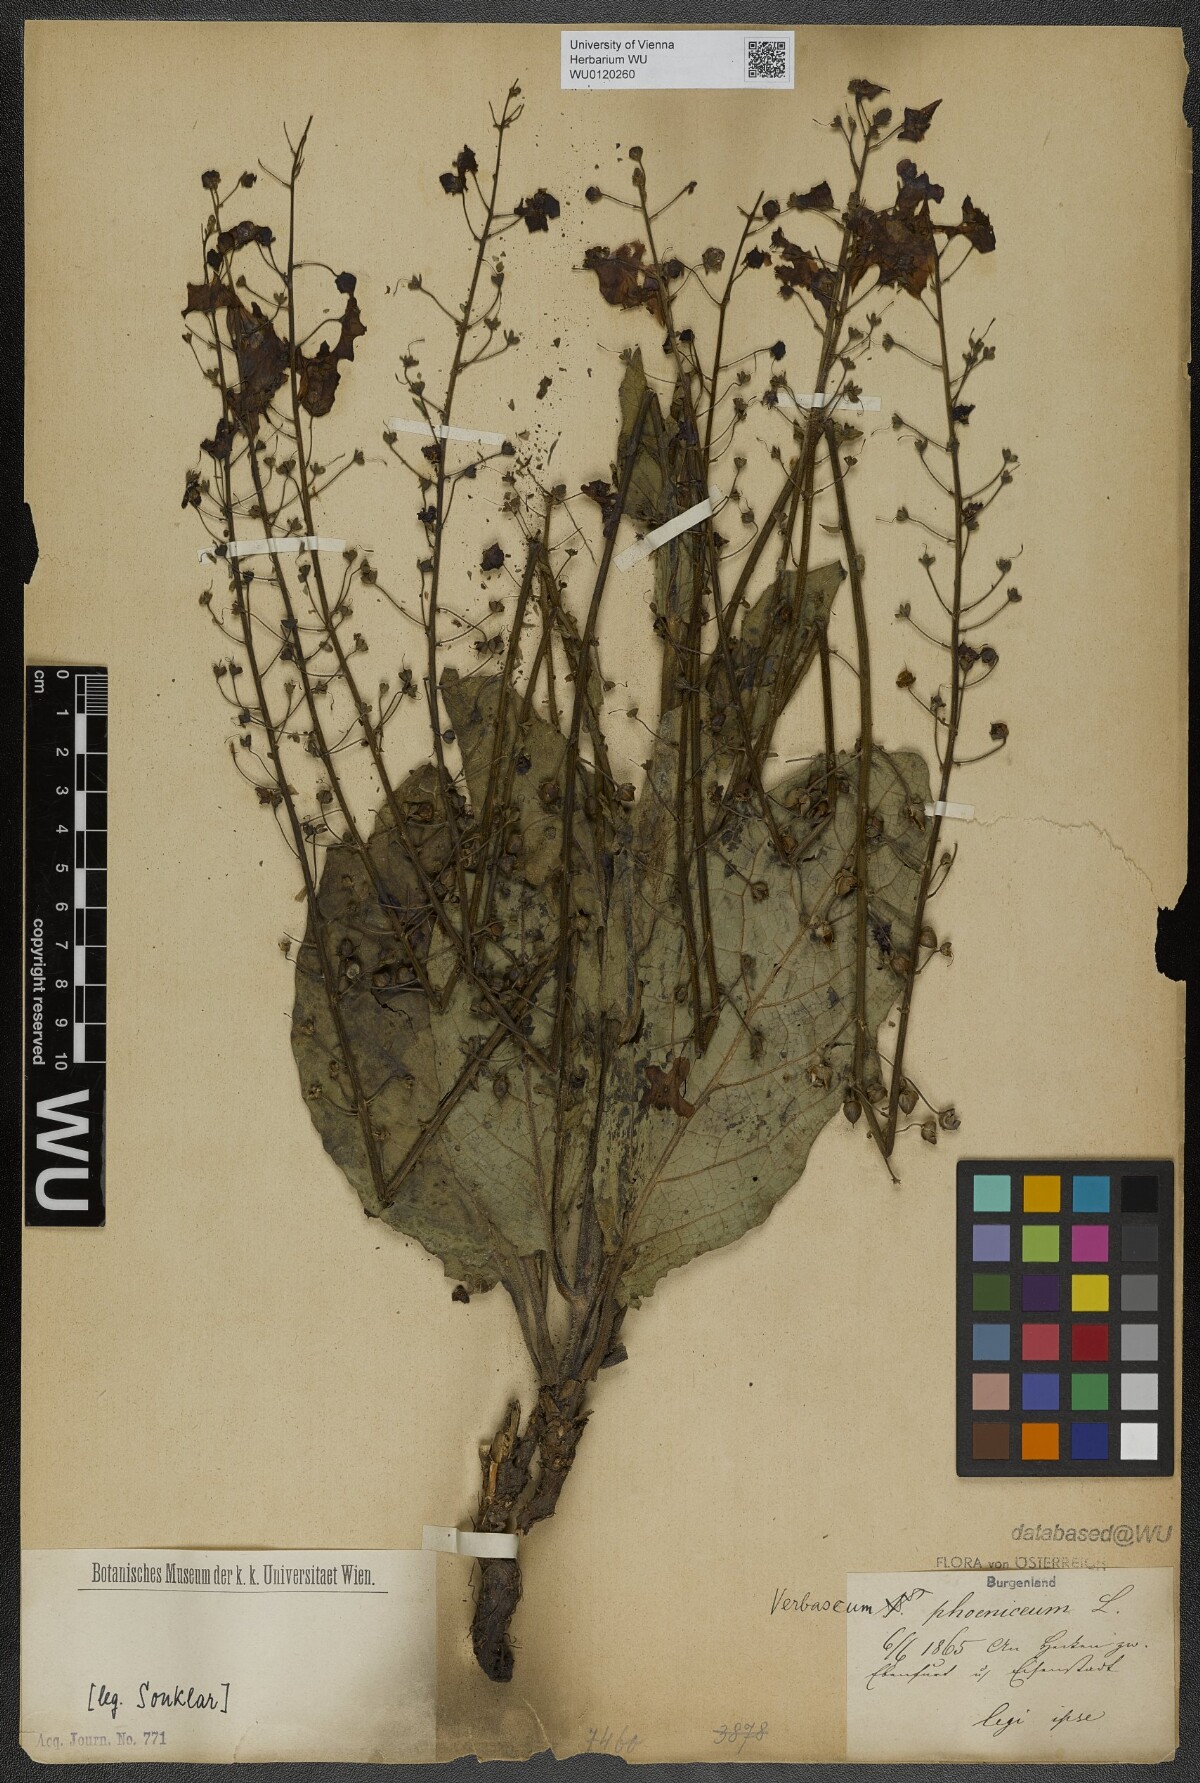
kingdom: Plantae
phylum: Tracheophyta
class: Magnoliopsida
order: Lamiales
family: Scrophulariaceae
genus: Verbascum
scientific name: Verbascum phoeniceum
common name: Purple mullein
